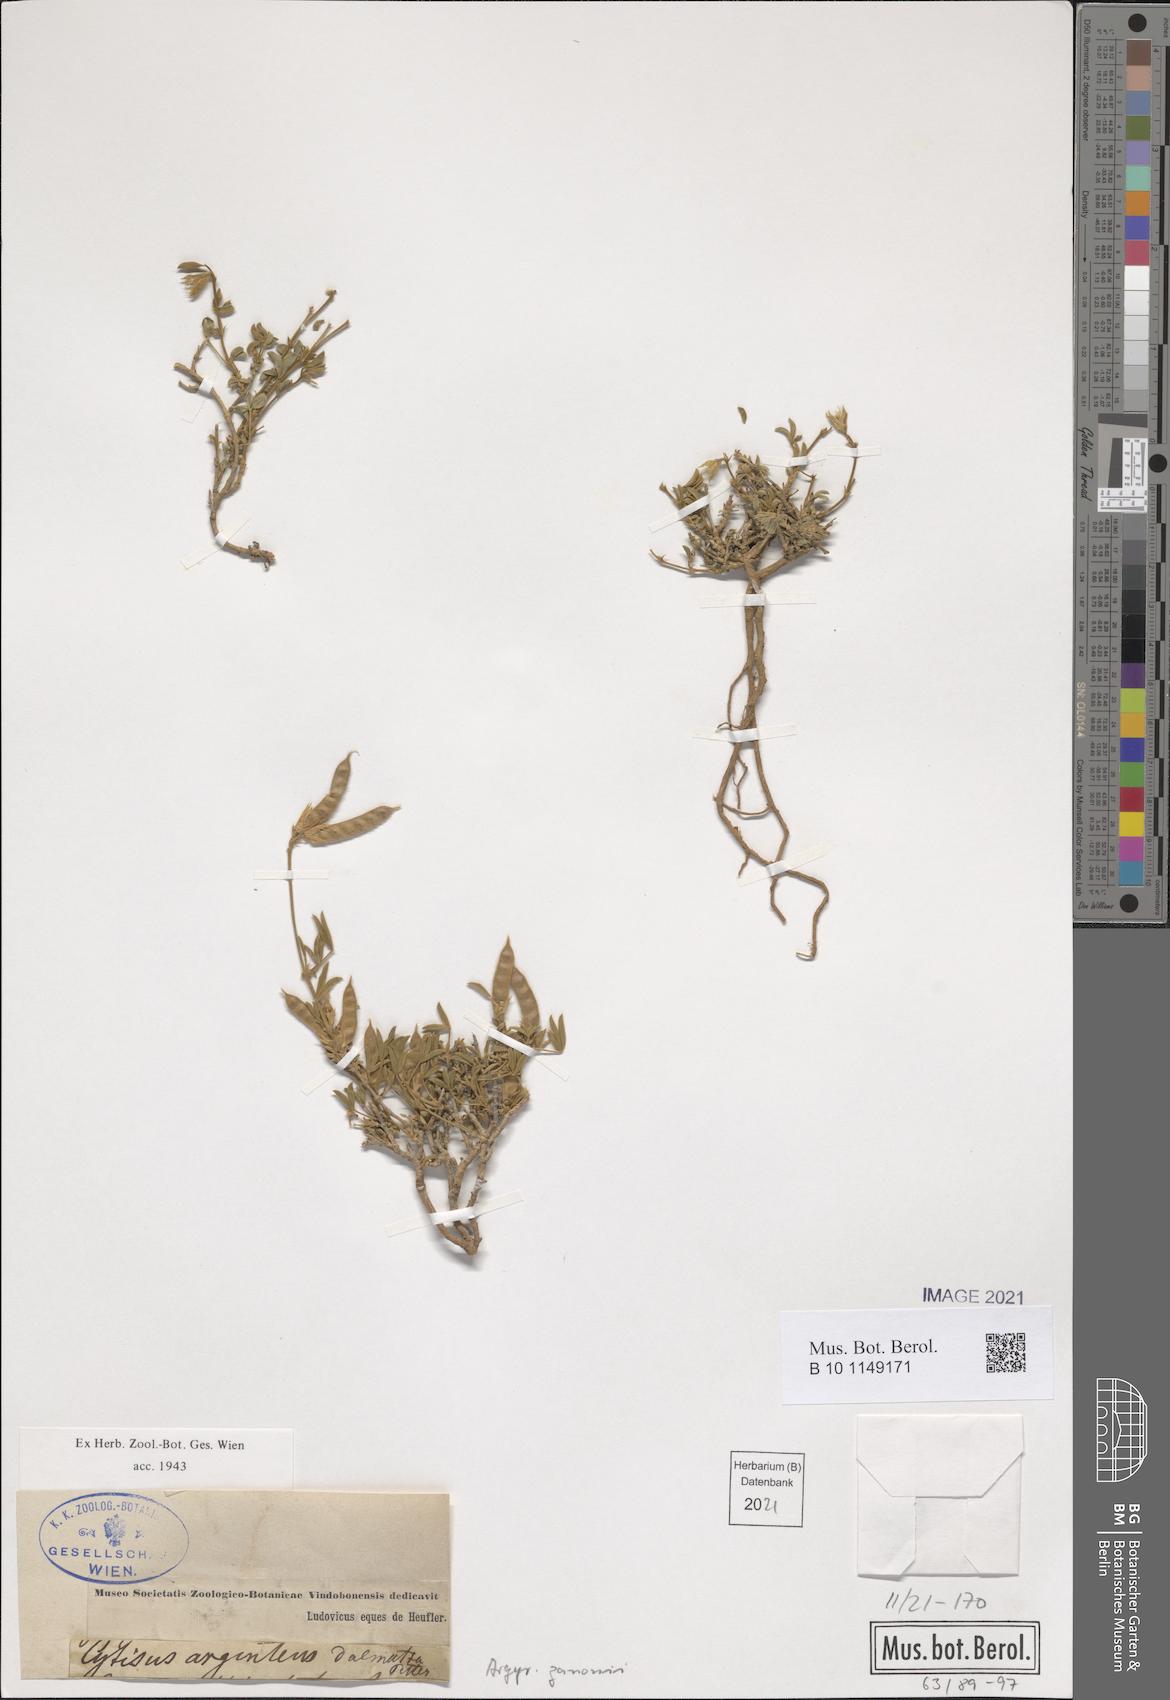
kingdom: Plantae
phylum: Tracheophyta
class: Magnoliopsida
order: Fabales
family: Fabaceae
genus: Argyrolobium
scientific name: Argyrolobium zanonii
